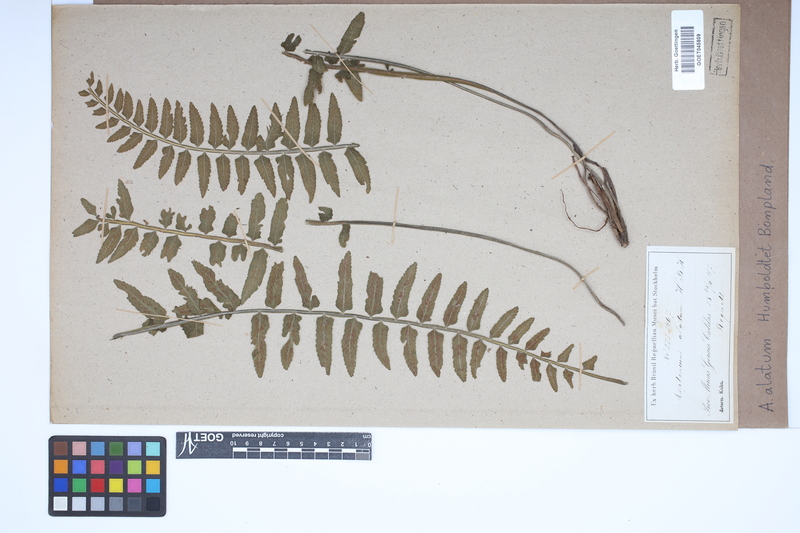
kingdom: Plantae
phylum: Tracheophyta
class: Polypodiopsida
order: Polypodiales
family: Aspleniaceae
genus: Asplenium
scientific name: Asplenium alatum
